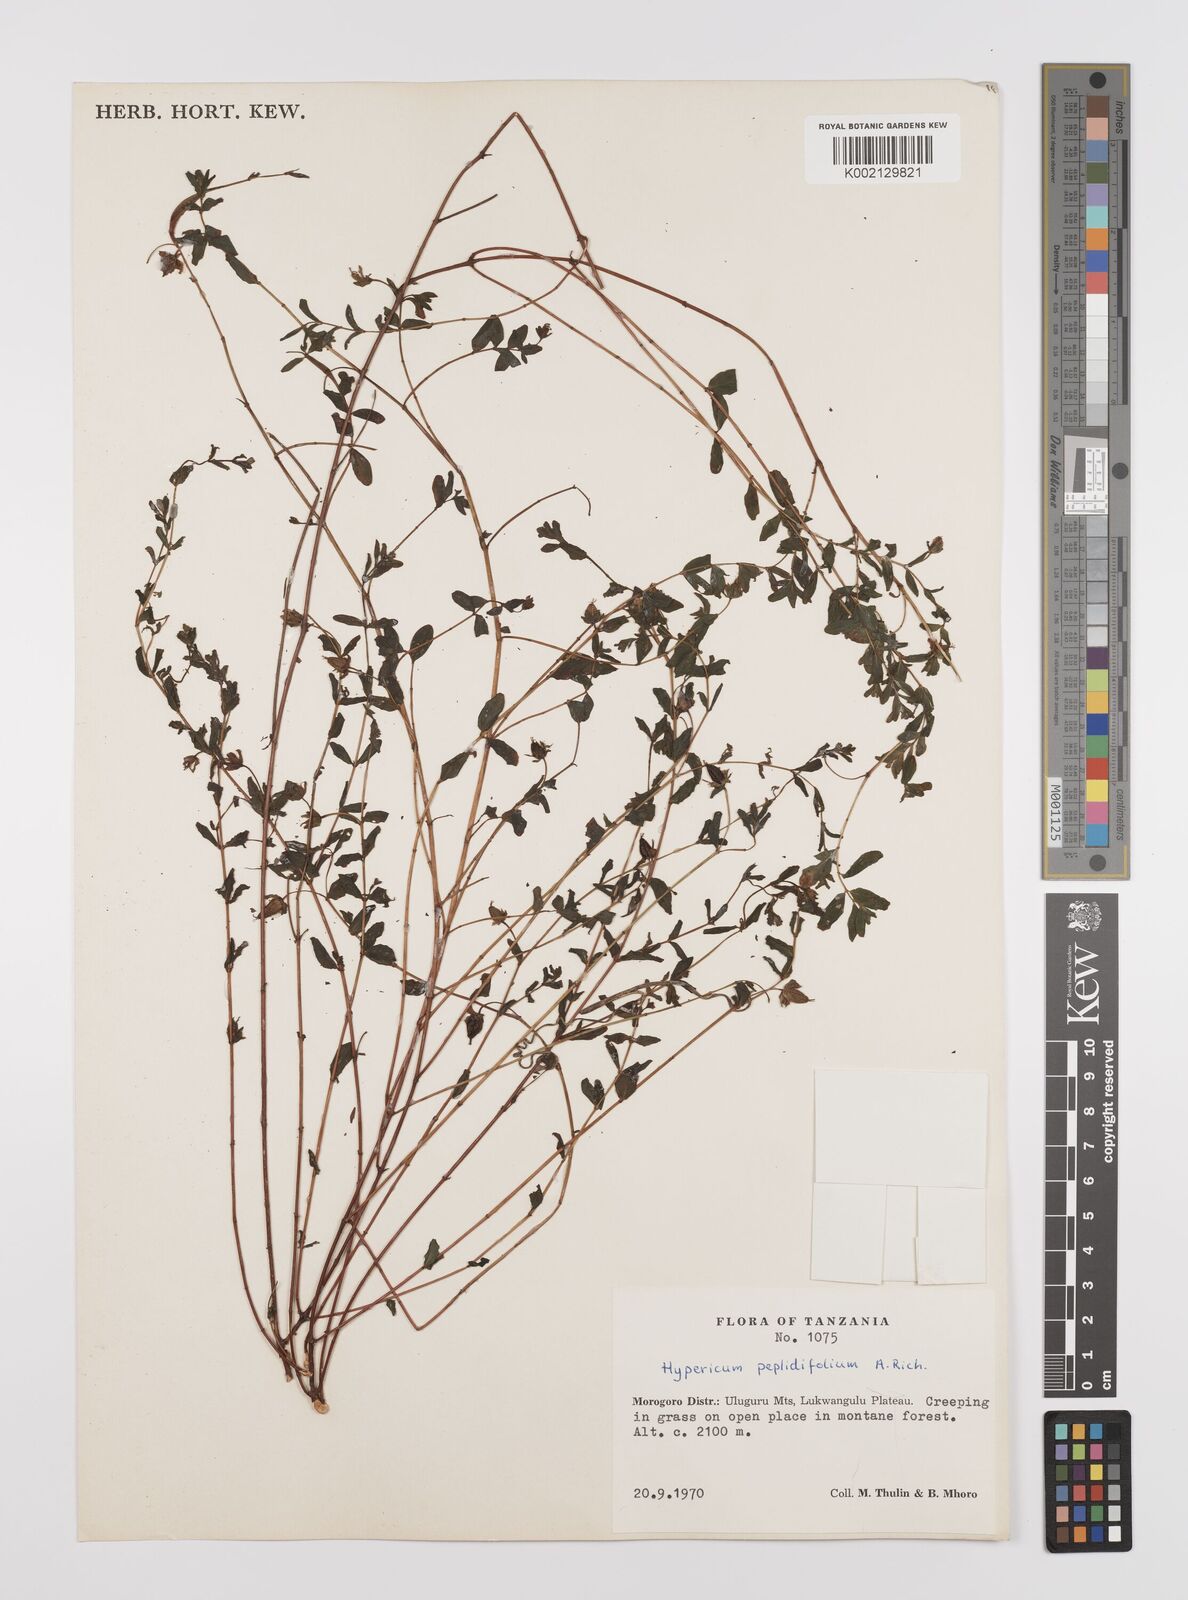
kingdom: Plantae
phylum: Tracheophyta
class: Magnoliopsida
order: Malpighiales
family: Hypericaceae
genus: Hypericum
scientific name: Hypericum peplidifolium
